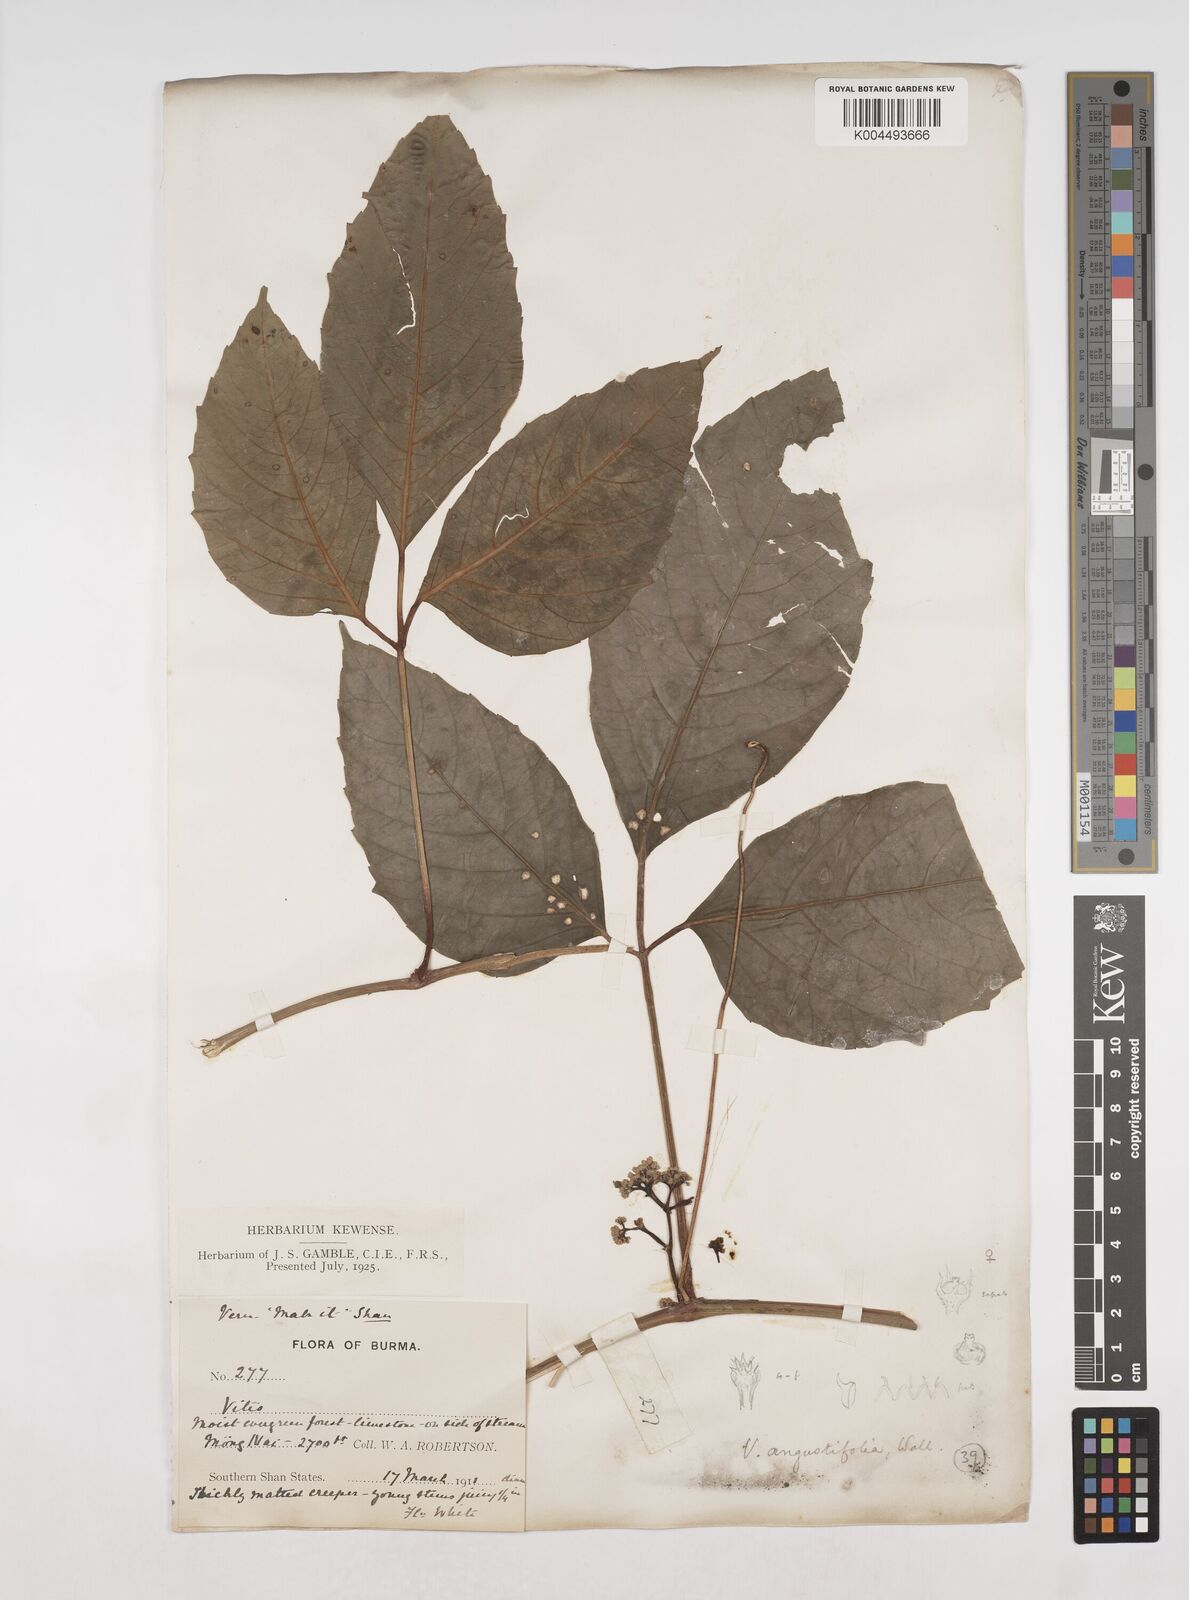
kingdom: Plantae
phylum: Tracheophyta
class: Magnoliopsida
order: Vitales
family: Vitaceae
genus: Tetrastigma
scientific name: Tetrastigma subsuberosum
